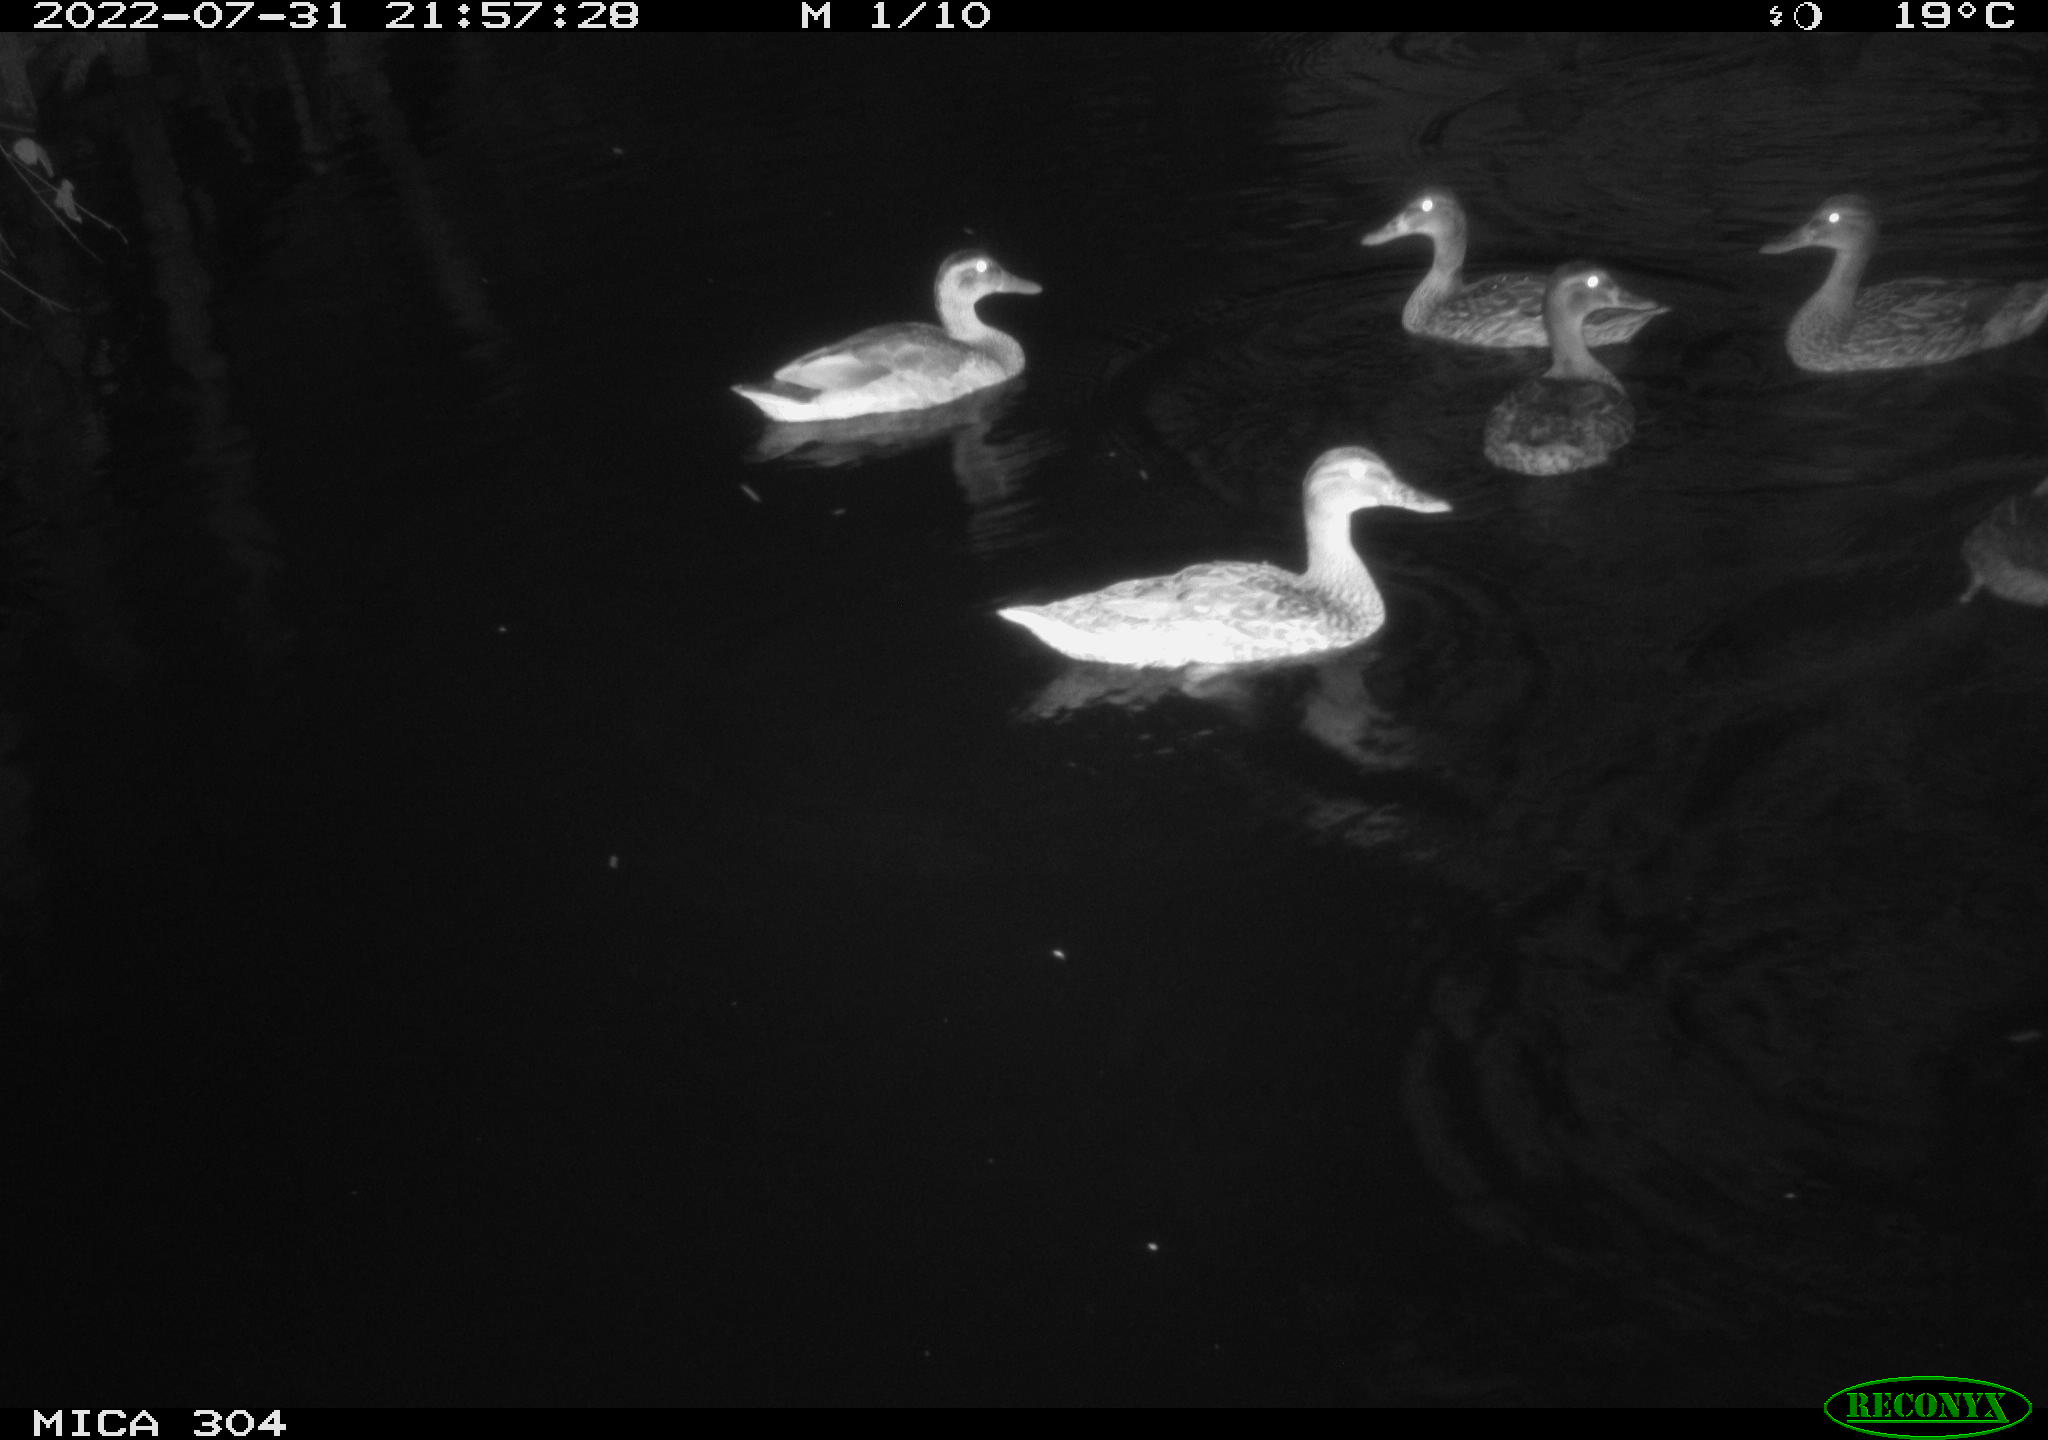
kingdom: Animalia
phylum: Chordata
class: Aves
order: Anseriformes
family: Anatidae
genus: Anas
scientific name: Anas platyrhynchos
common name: Mallard
